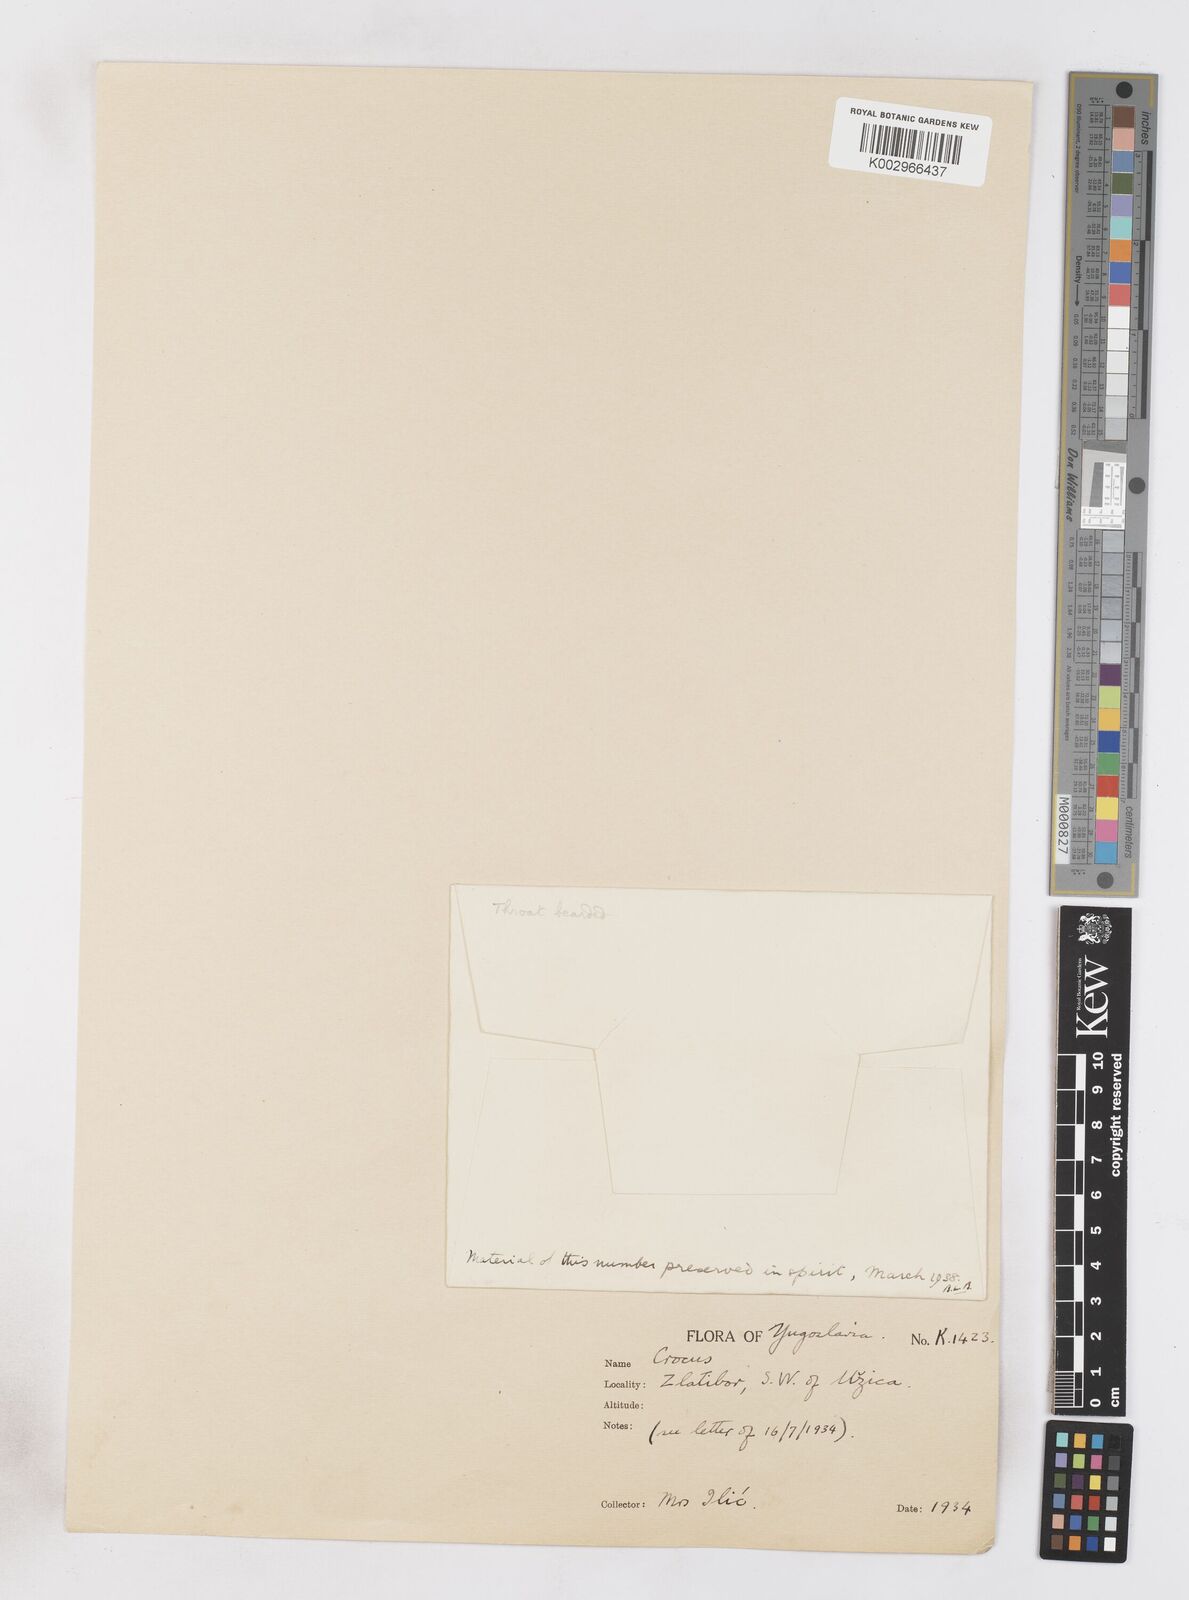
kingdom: Plantae
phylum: Tracheophyta
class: Liliopsida
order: Asparagales
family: Iridaceae
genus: Crocus
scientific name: Crocus vernus
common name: Spring crocus
